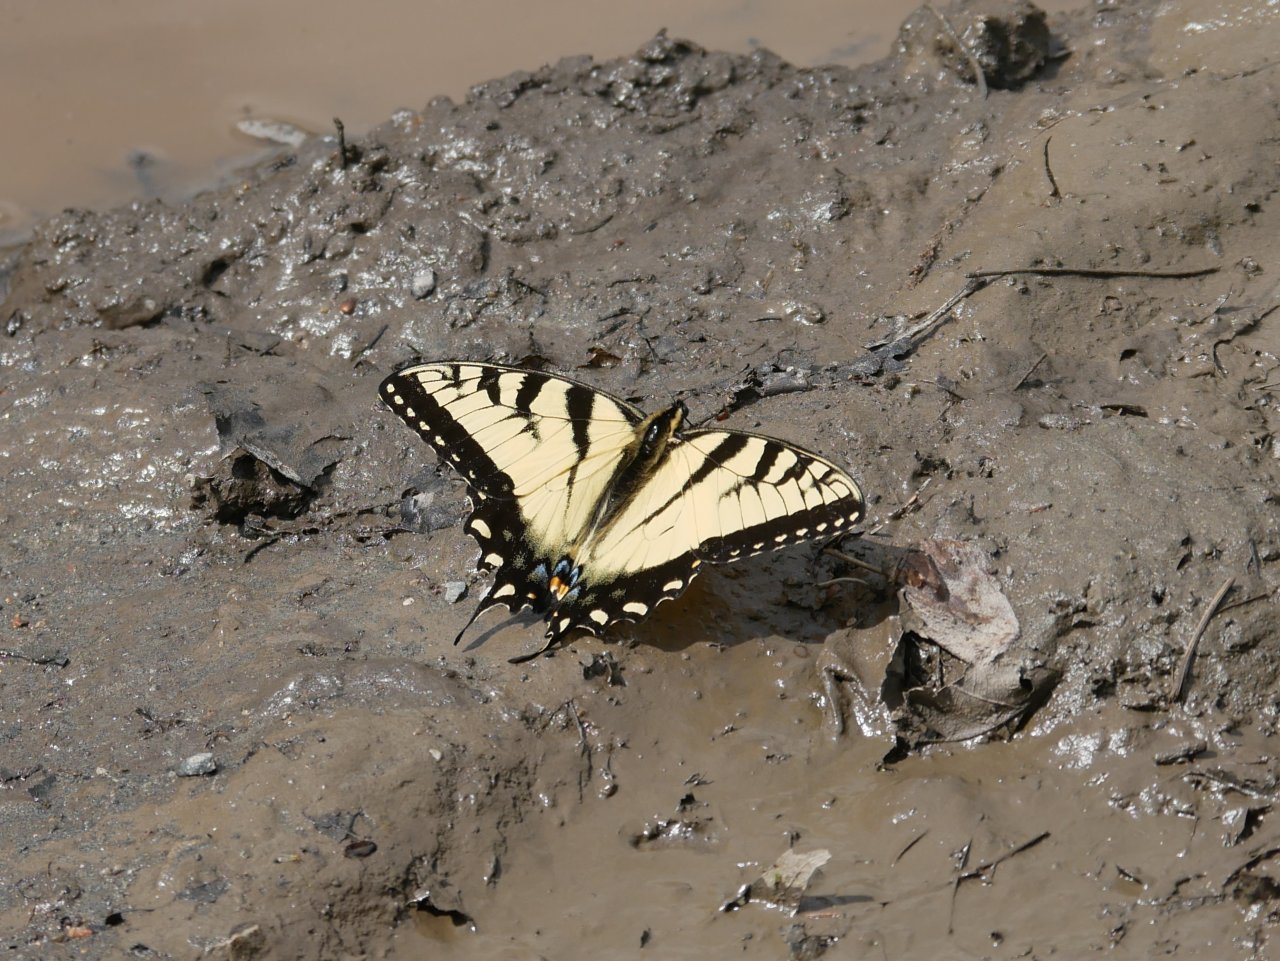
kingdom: Animalia
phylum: Arthropoda
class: Insecta
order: Lepidoptera
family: Papilionidae
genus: Pterourus
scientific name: Pterourus glaucus
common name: Eastern Tiger Swallowtail
